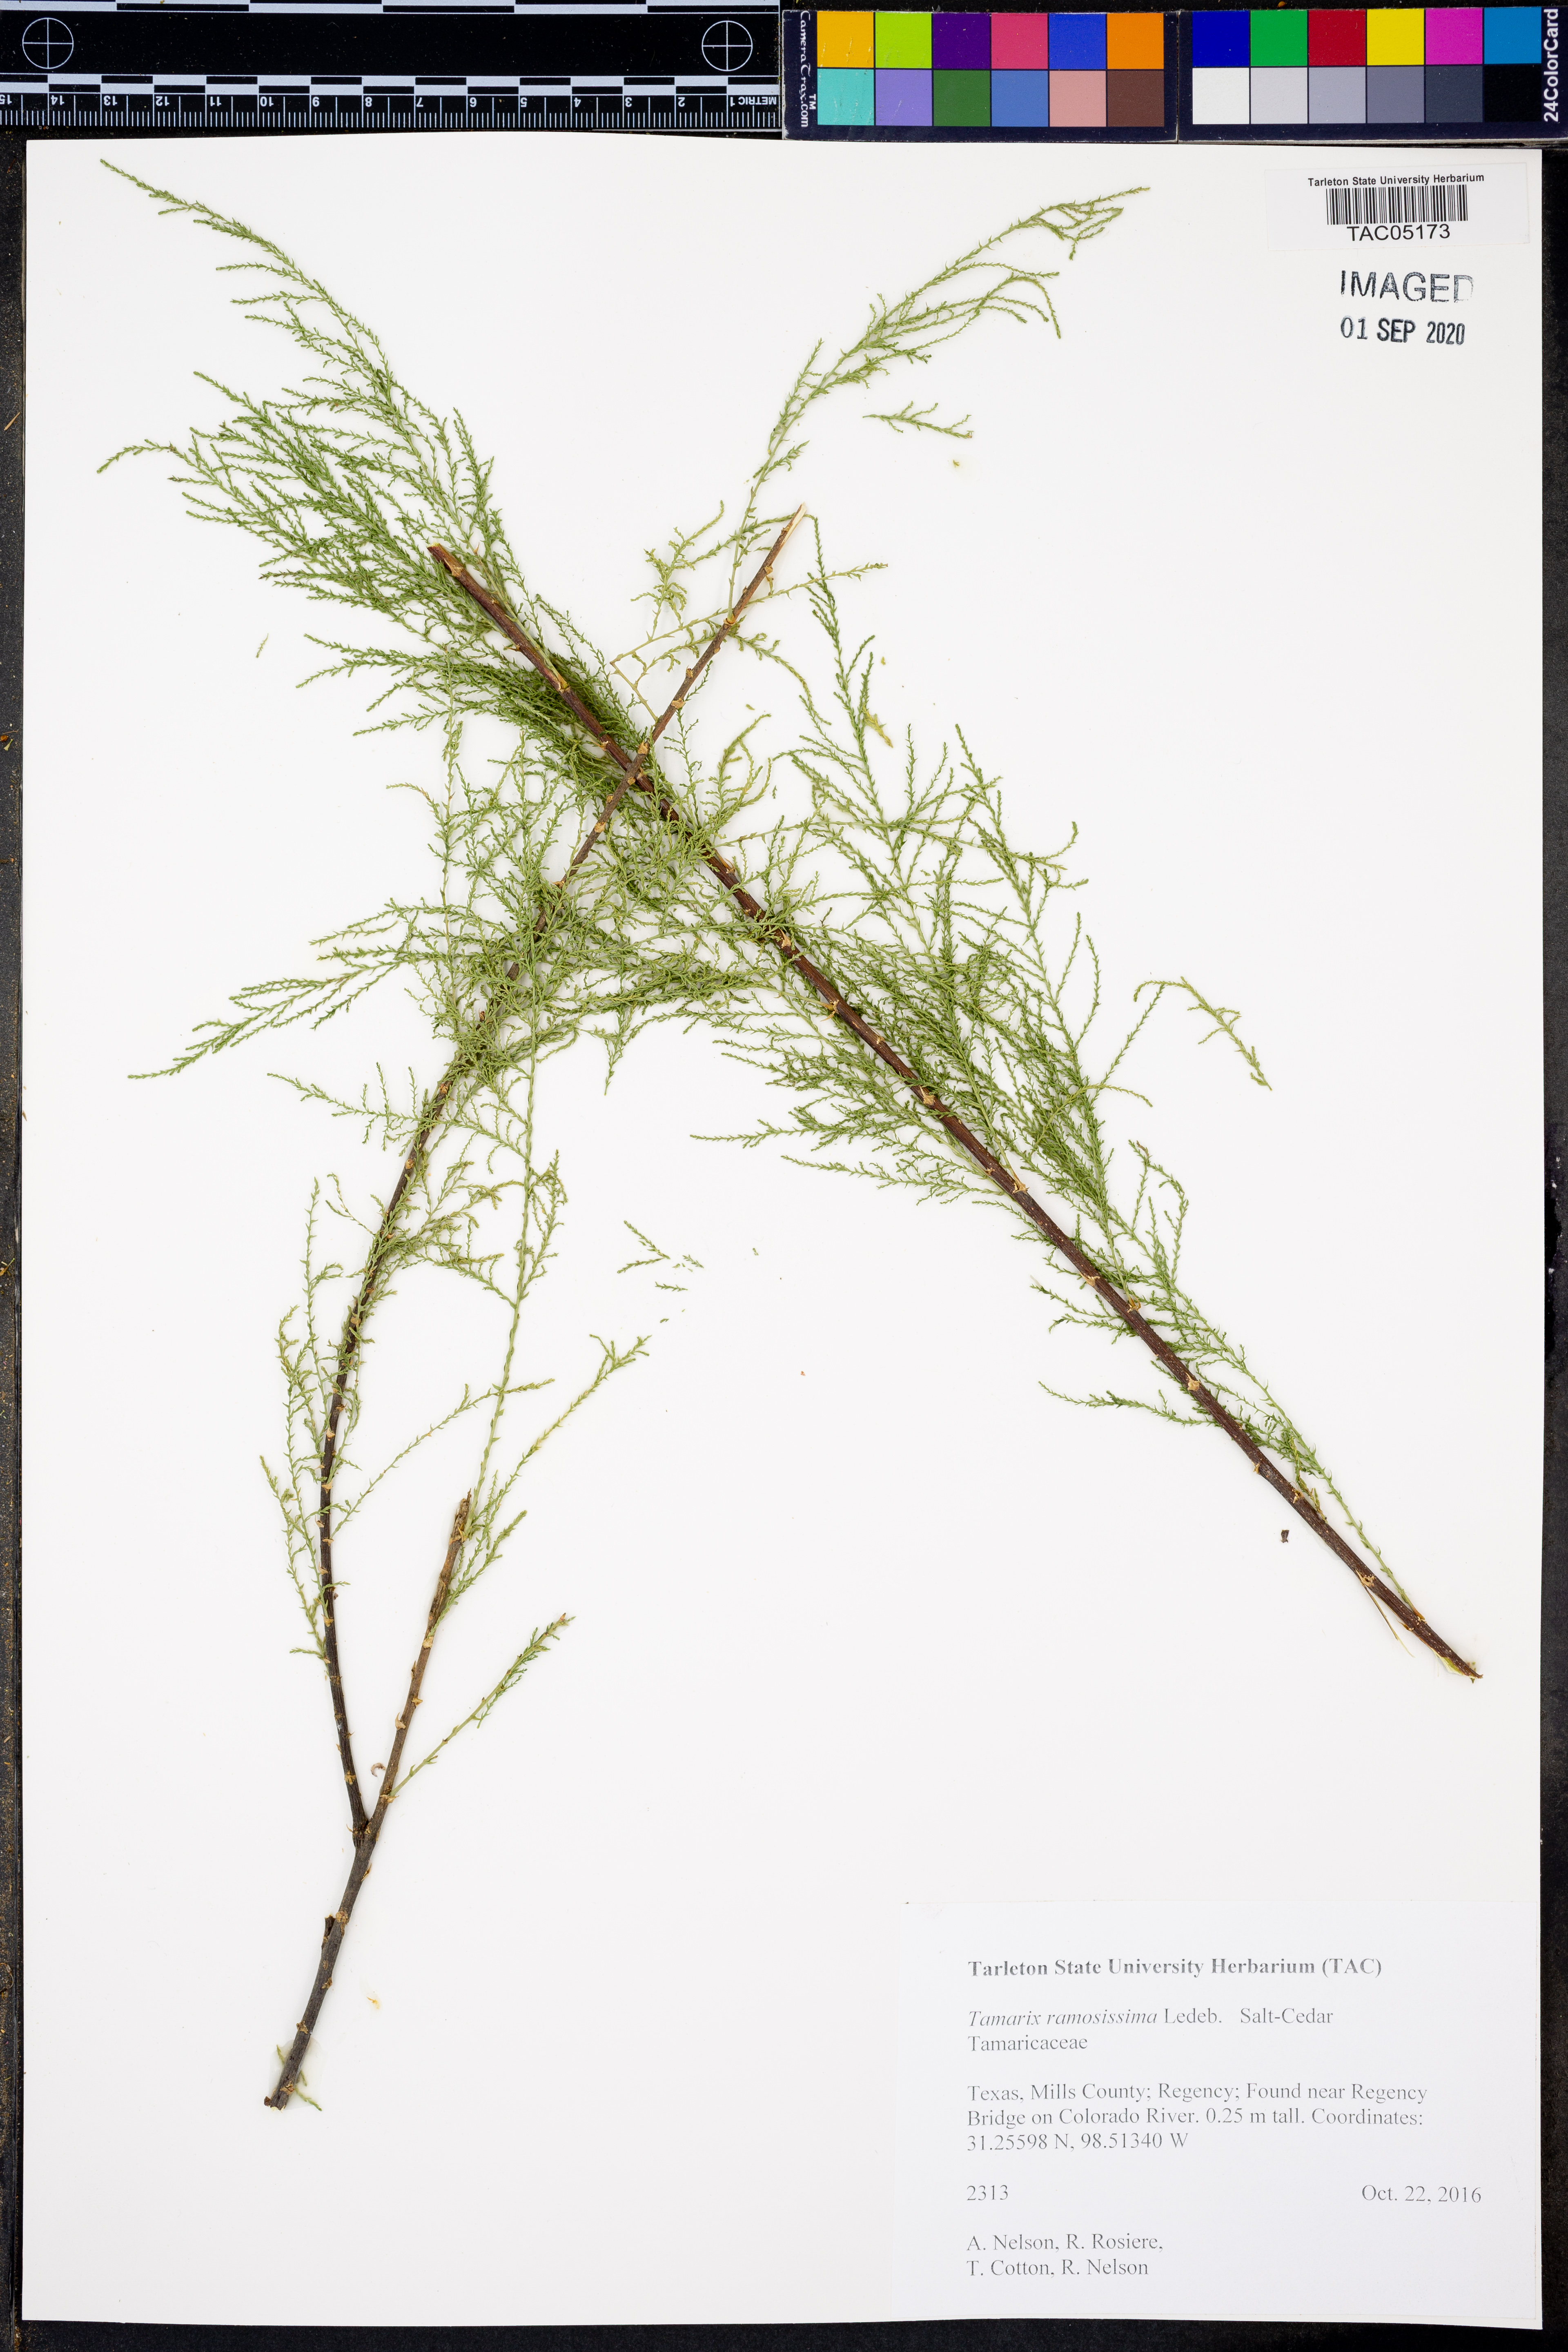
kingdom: Plantae
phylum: Tracheophyta
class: Magnoliopsida
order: Caryophyllales
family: Tamaricaceae
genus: Tamarix
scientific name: Tamarix ramosissima
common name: Pink tamarisk
